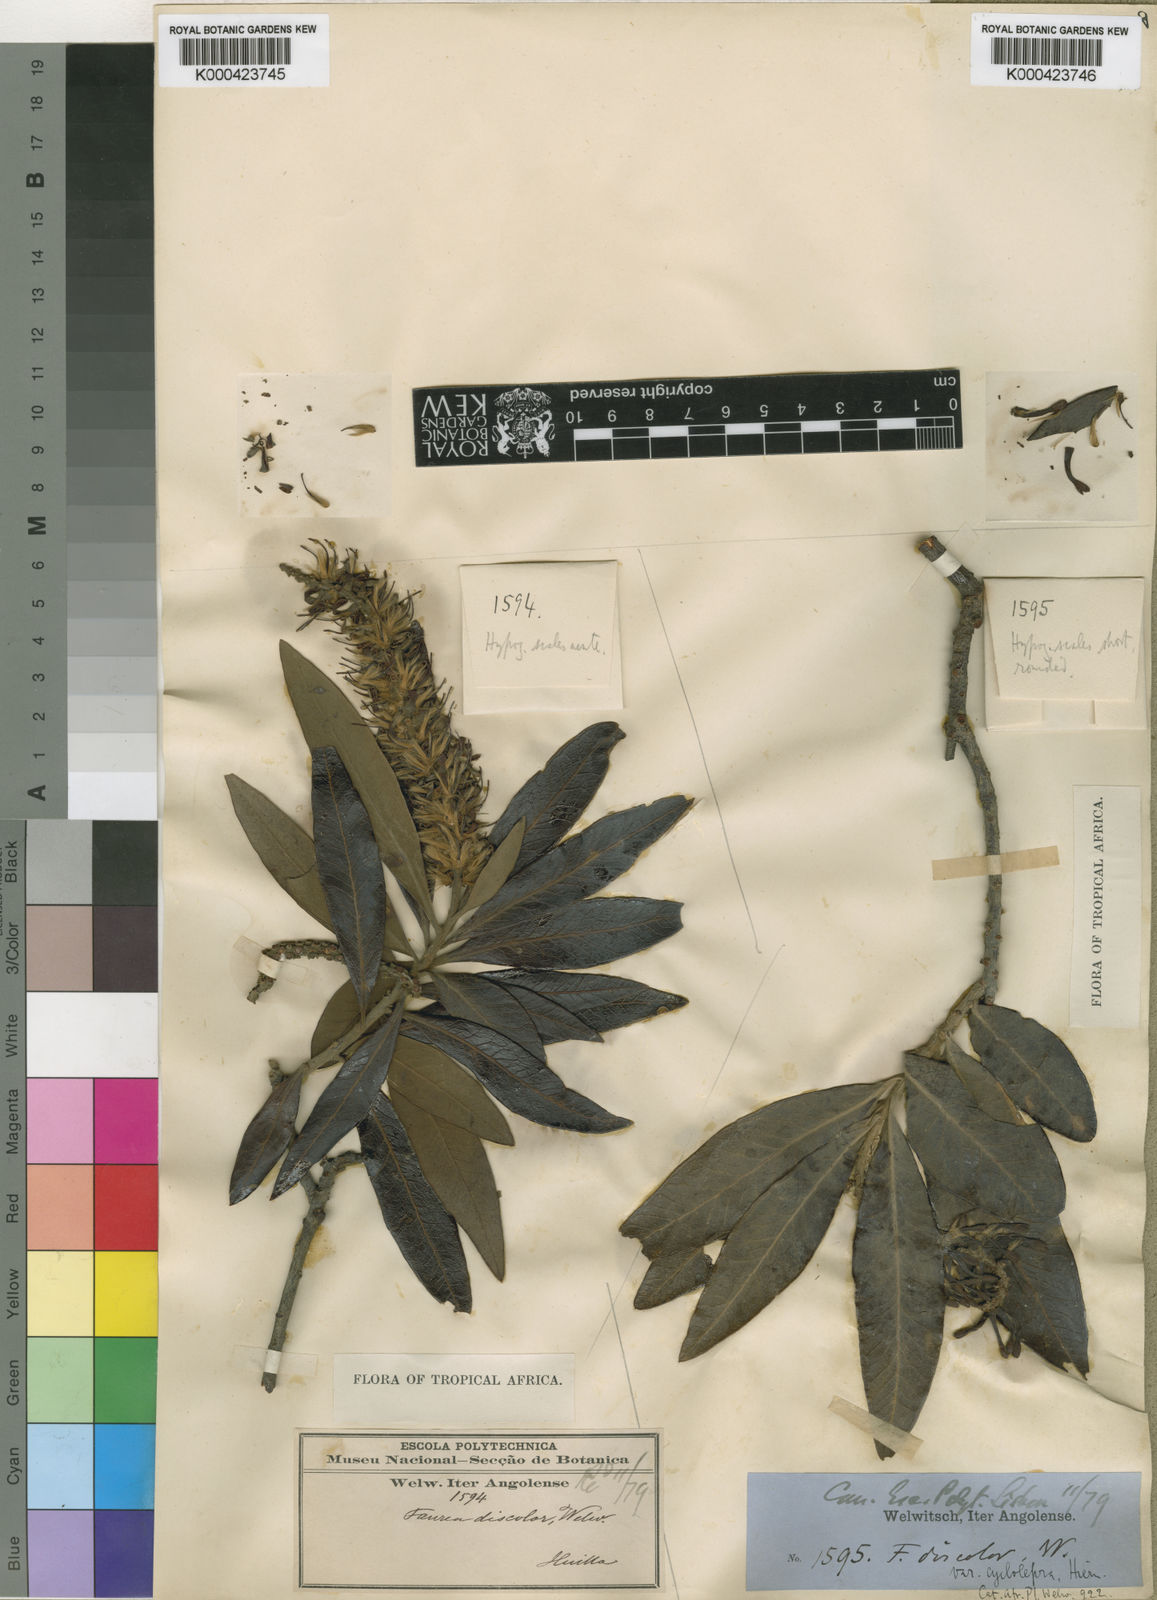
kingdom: Plantae
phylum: Tracheophyta
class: Magnoliopsida
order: Proteales
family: Proteaceae
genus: Faurea
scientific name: Faurea discolor
